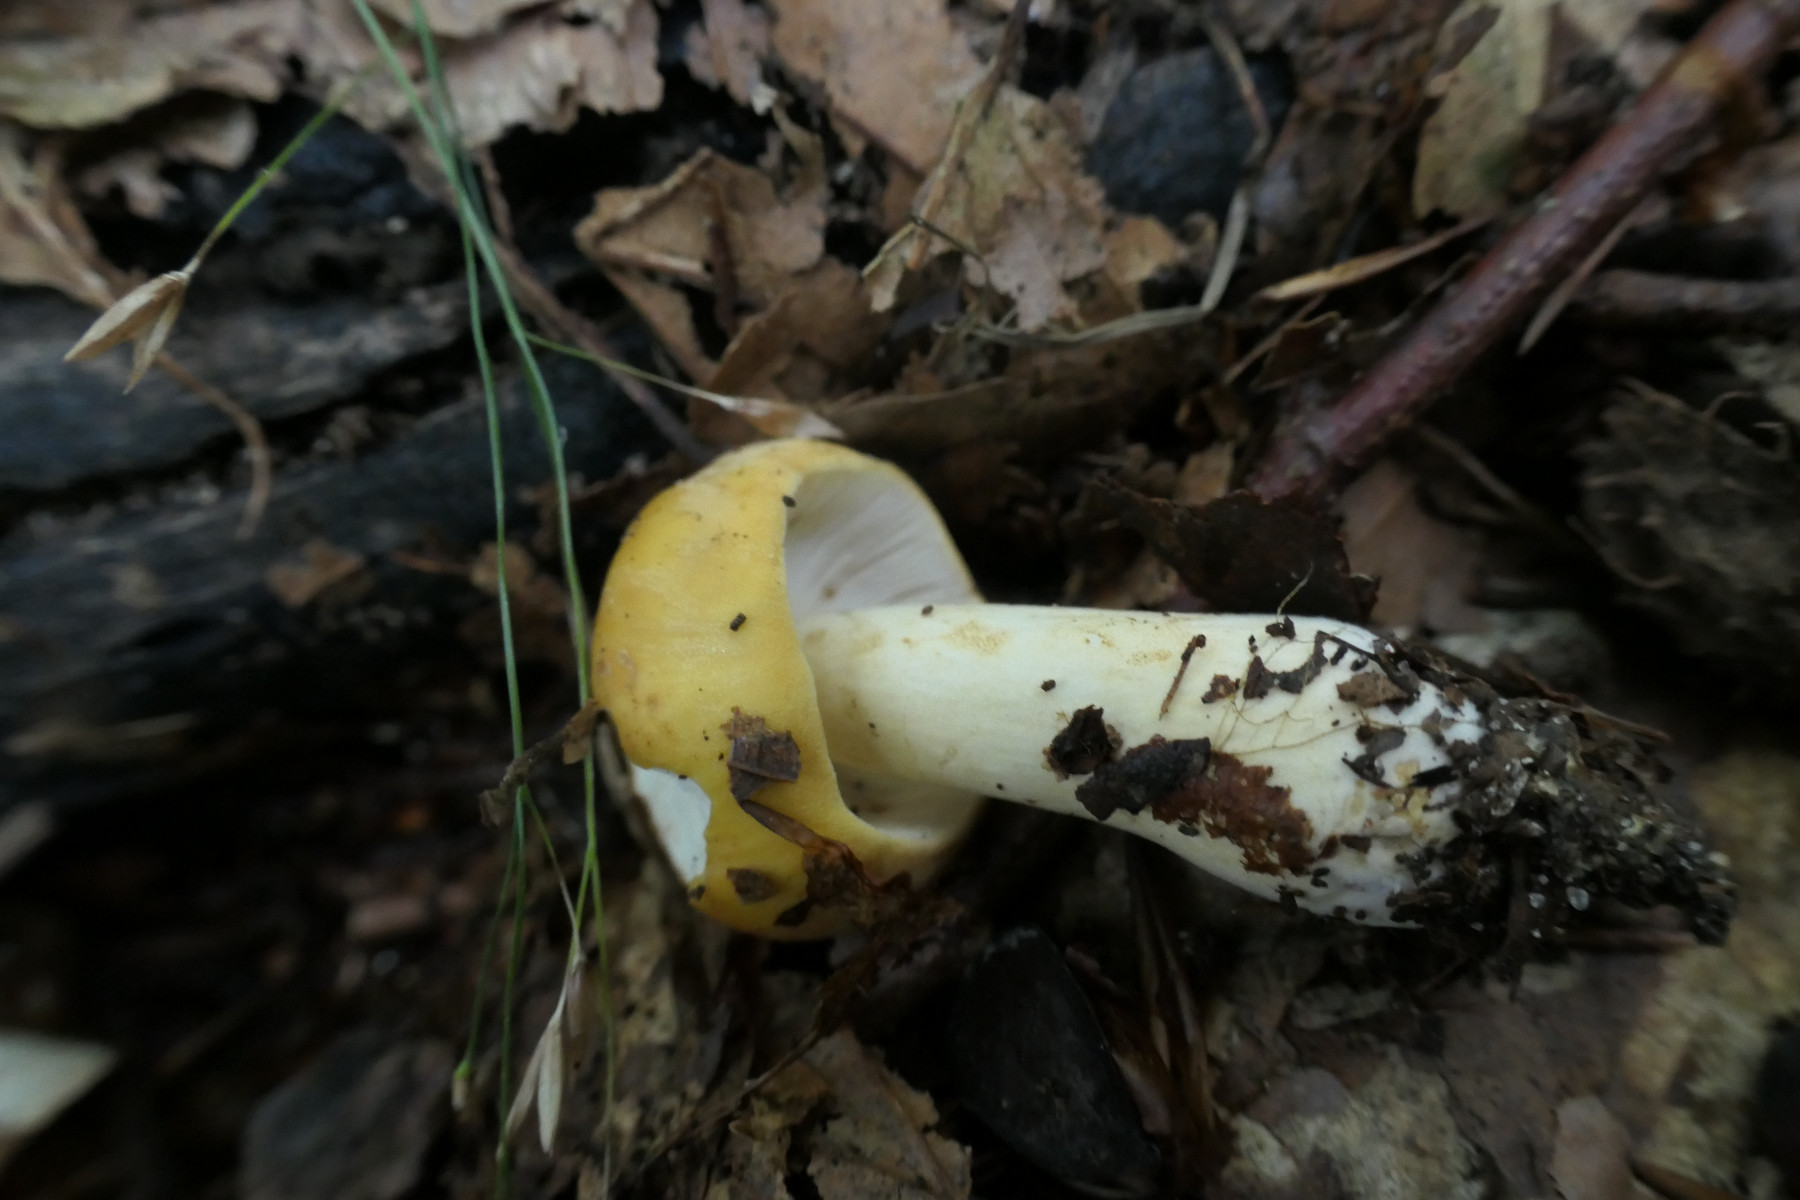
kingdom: Fungi
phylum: Basidiomycota
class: Agaricomycetes
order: Russulales
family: Russulaceae
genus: Russula
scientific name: Russula fellea
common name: galde-skørhat
